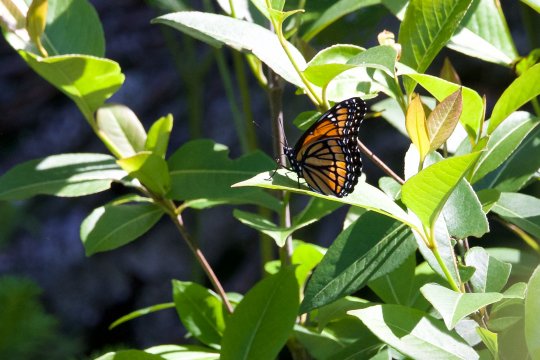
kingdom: Animalia
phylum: Arthropoda
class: Insecta
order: Lepidoptera
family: Nymphalidae
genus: Limenitis
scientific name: Limenitis archippus
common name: Viceroy
